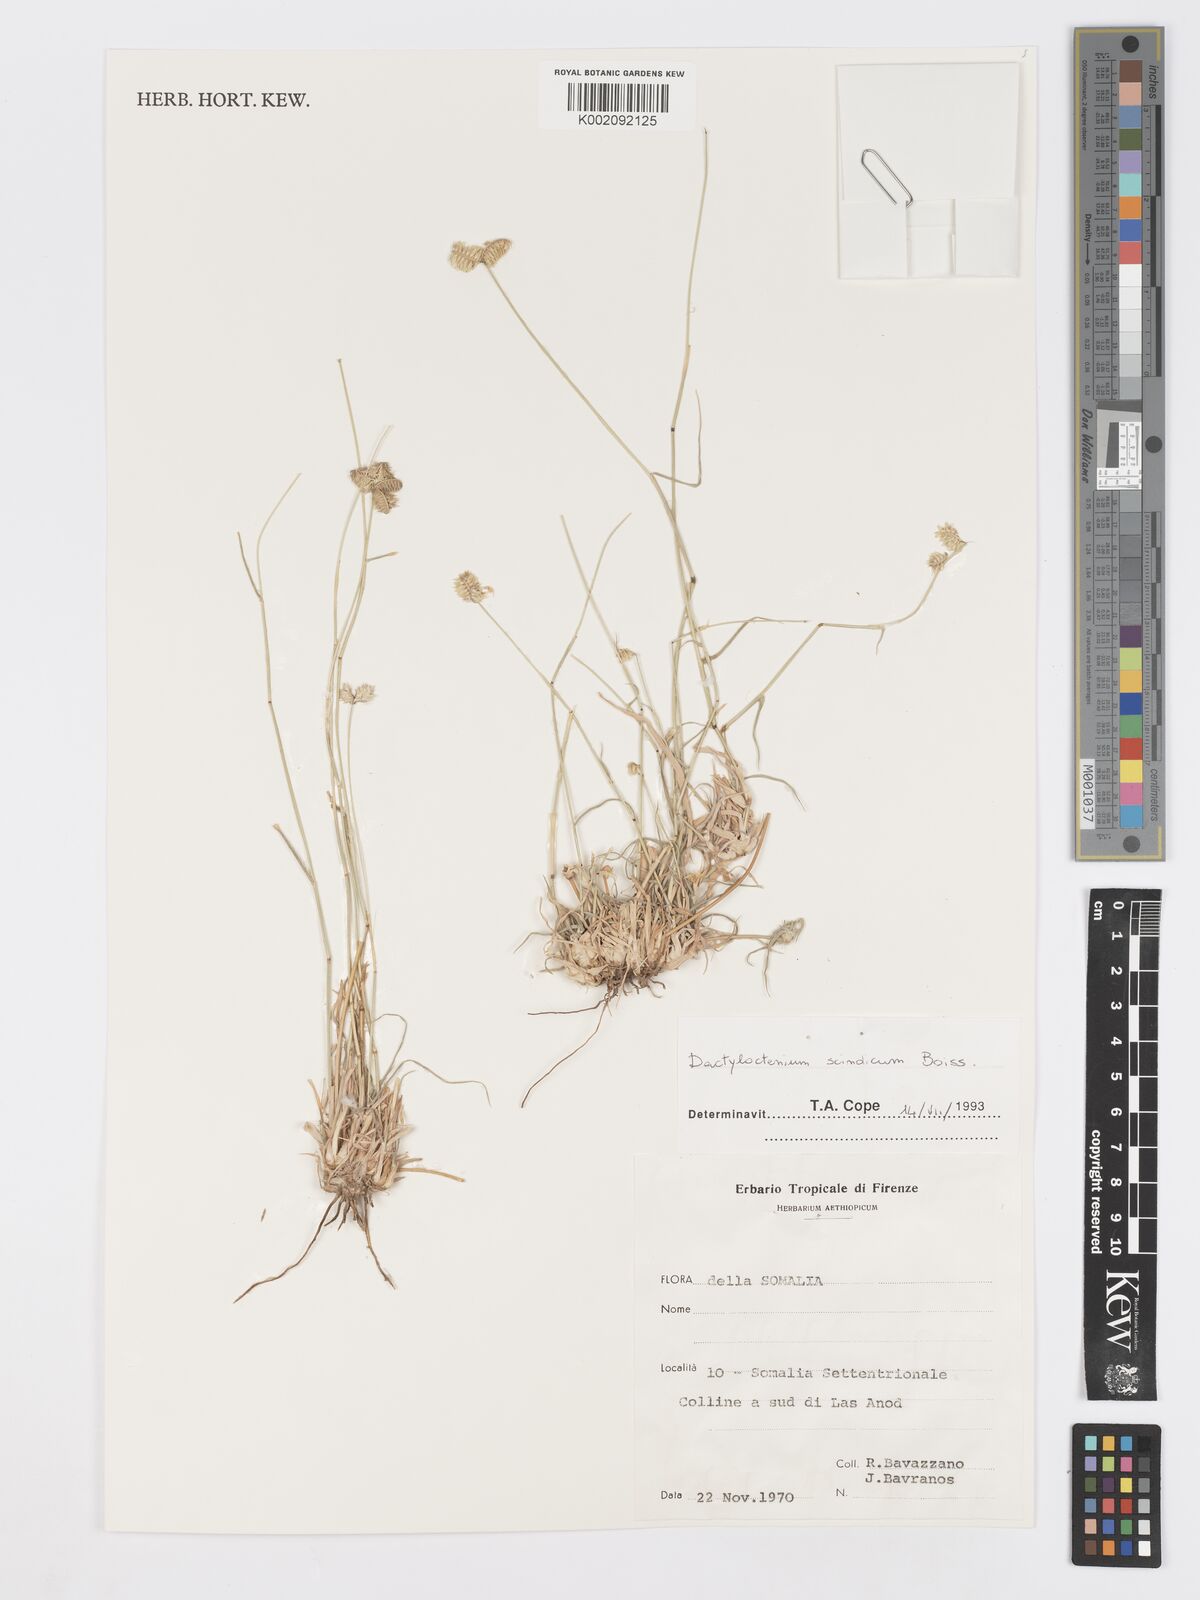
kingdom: Plantae
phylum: Tracheophyta
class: Liliopsida
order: Poales
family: Poaceae
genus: Dactyloctenium
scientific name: Dactyloctenium scindicum
